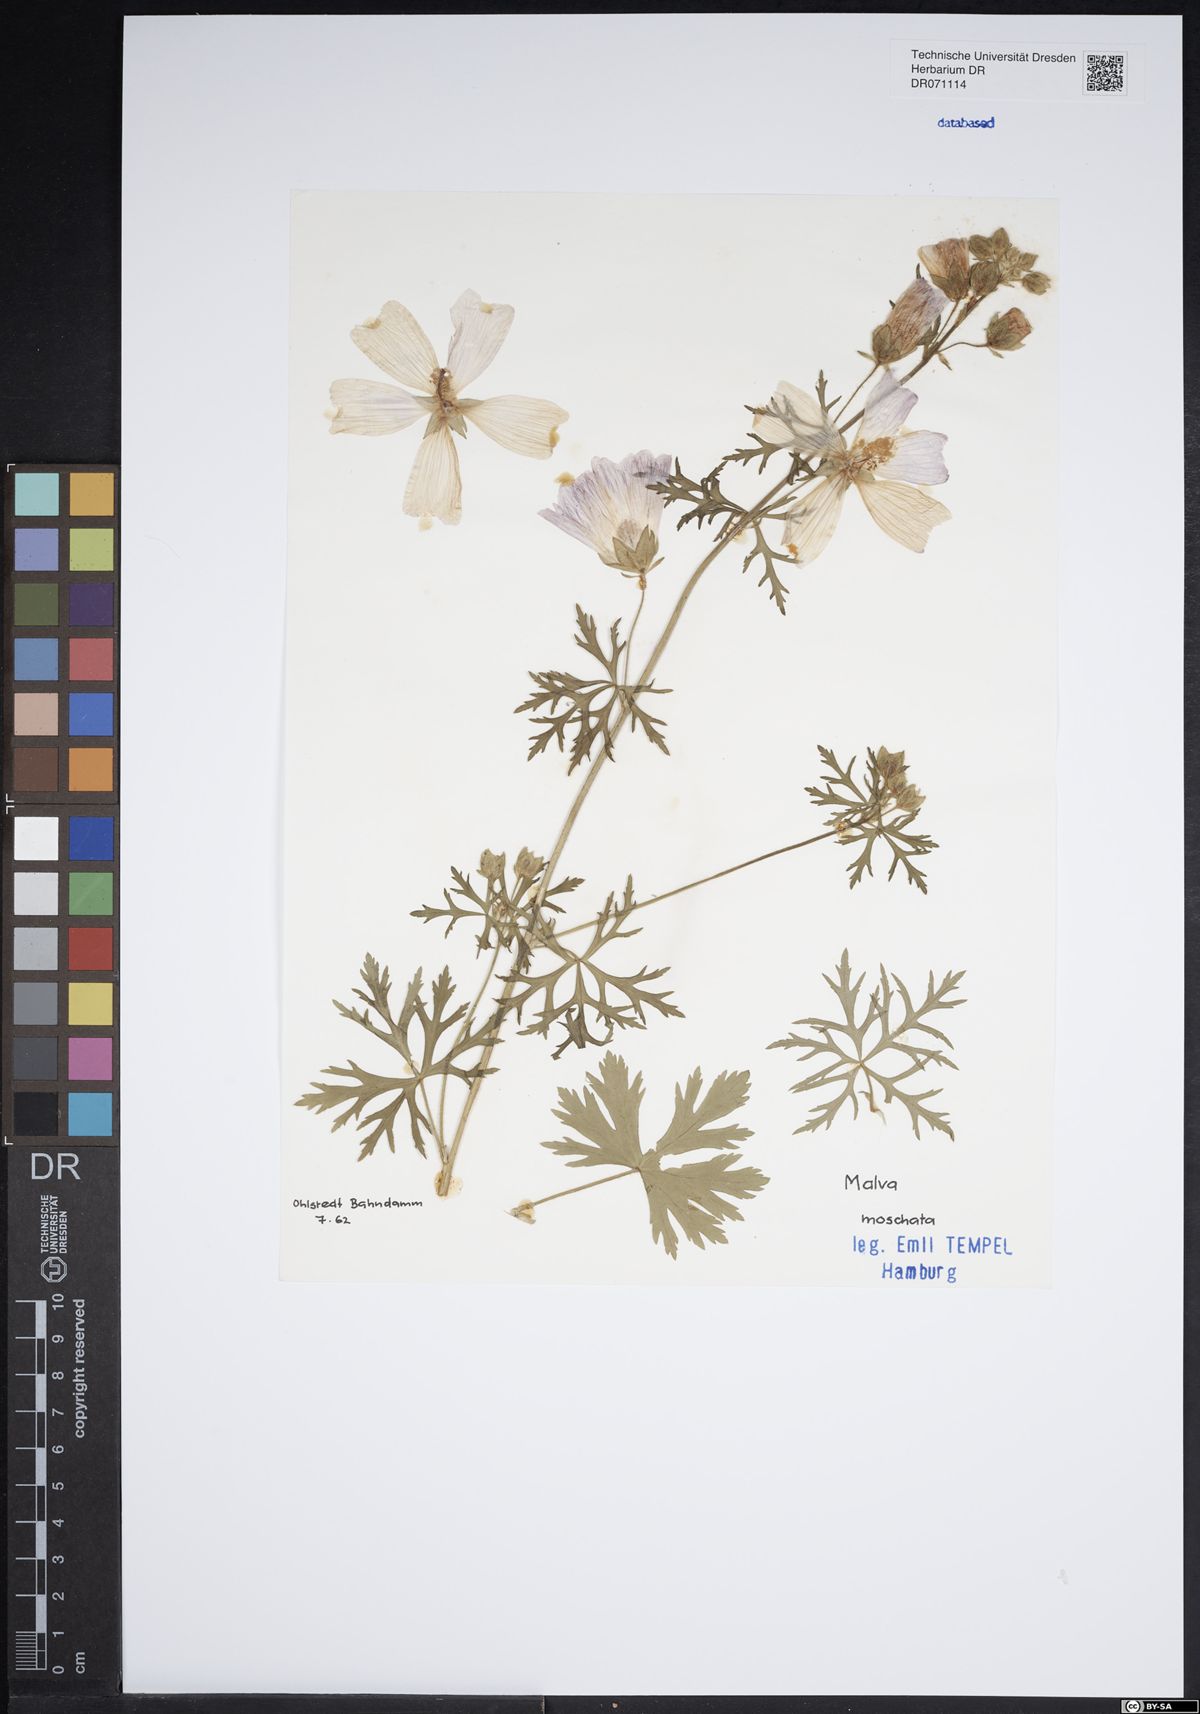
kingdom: Plantae
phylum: Tracheophyta
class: Magnoliopsida
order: Malvales
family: Malvaceae
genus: Malva
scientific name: Malva moschata
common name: Musk mallow
